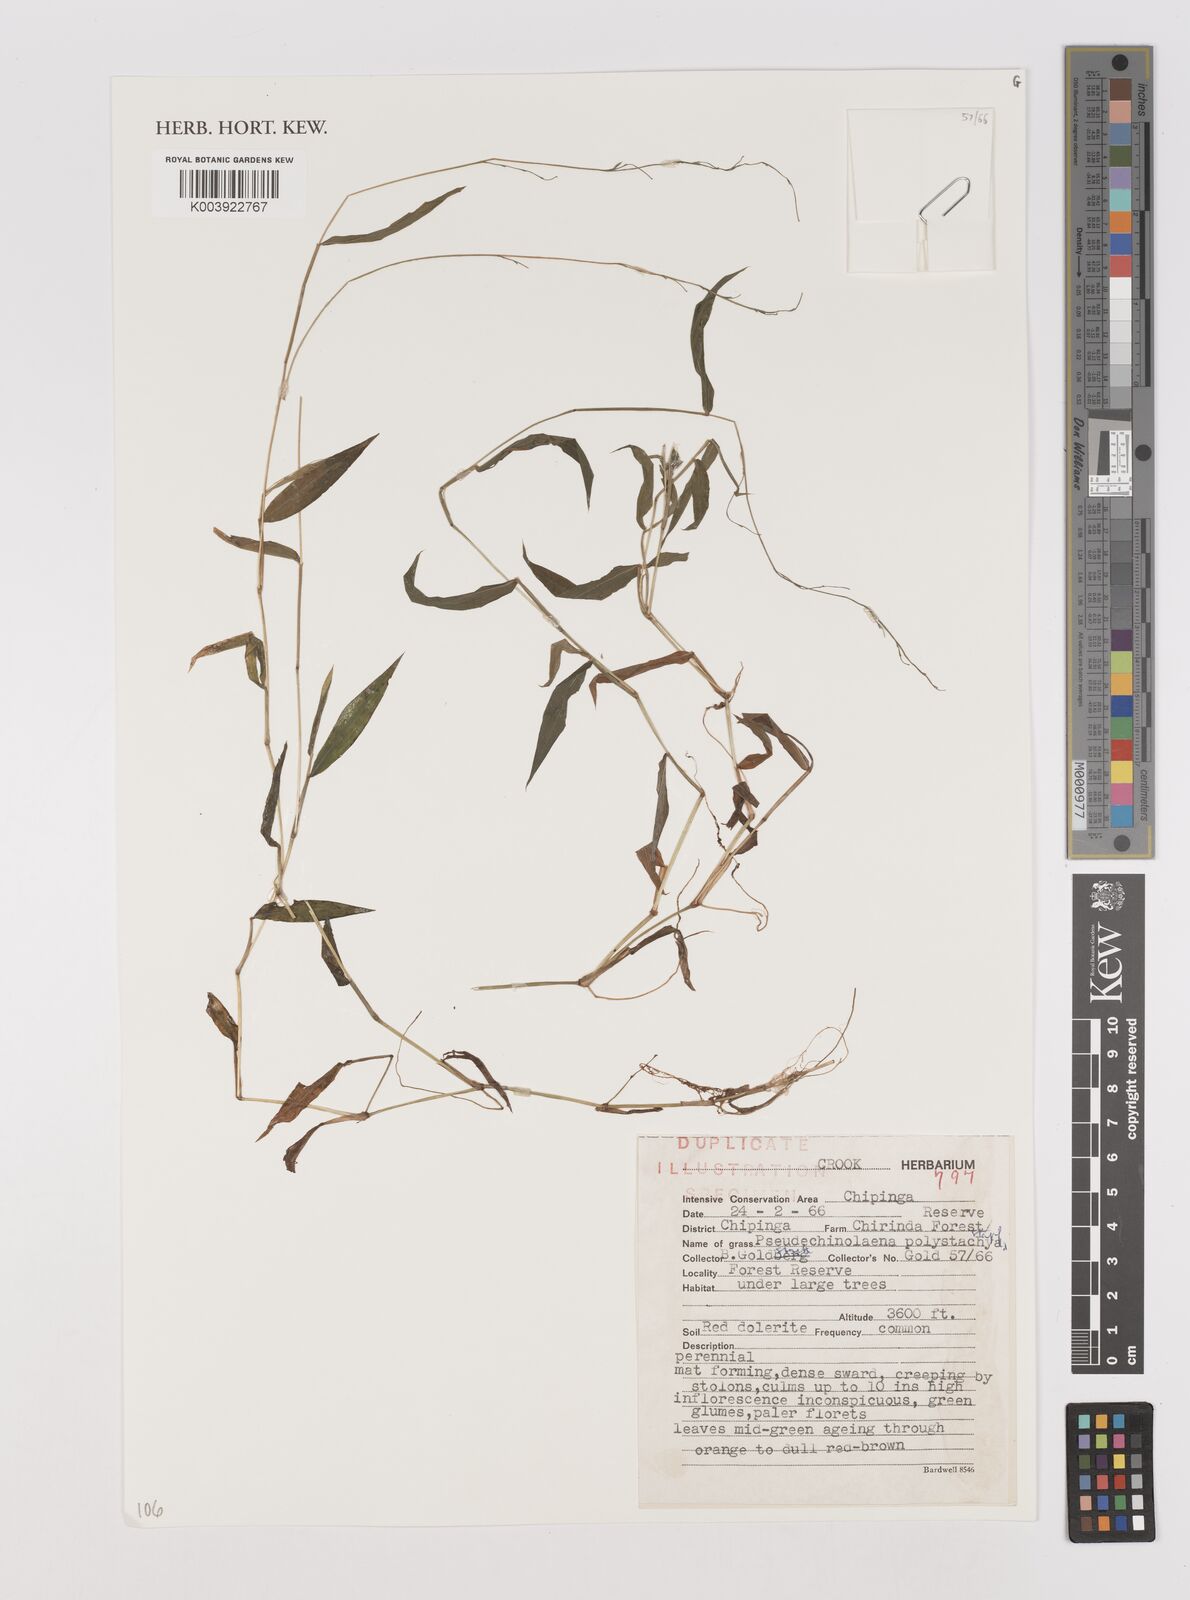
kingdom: Plantae
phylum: Tracheophyta
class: Liliopsida
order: Poales
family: Poaceae
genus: Pseudechinolaena
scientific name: Pseudechinolaena polystachya
